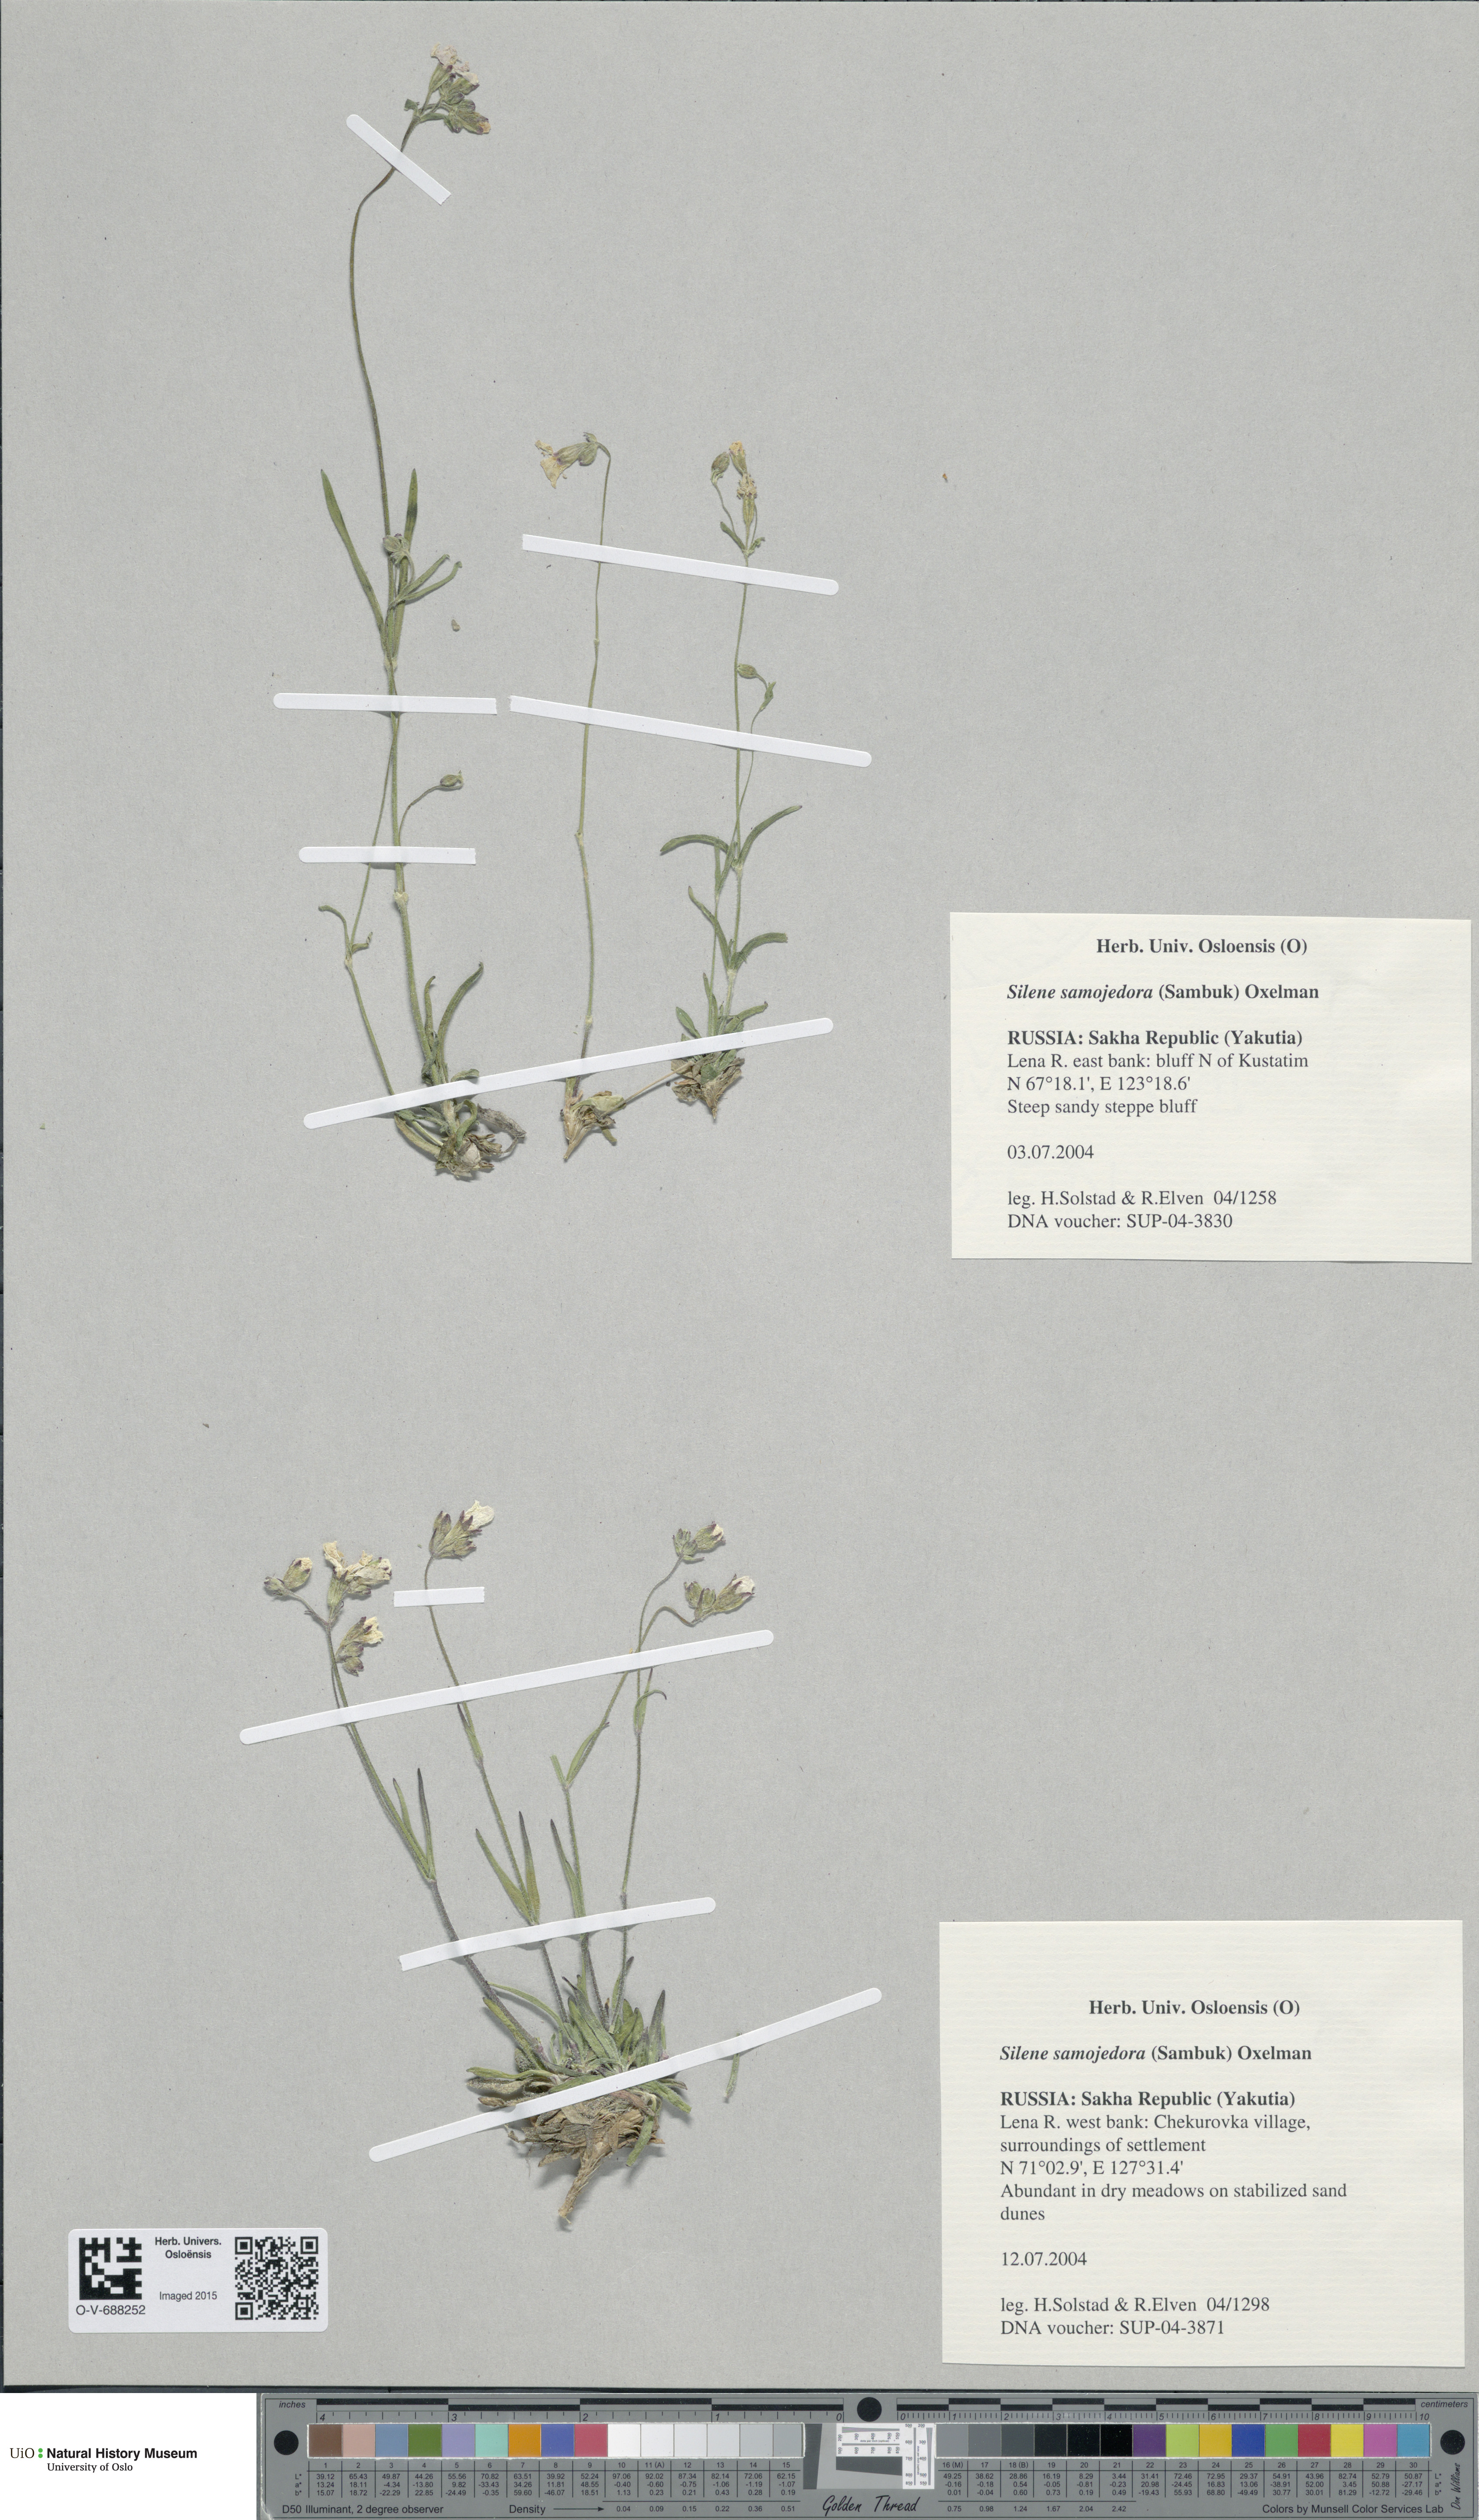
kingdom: Plantae
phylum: Tracheophyta
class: Magnoliopsida
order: Caryophyllales
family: Caryophyllaceae
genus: Silene
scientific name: Silene samojedorum
